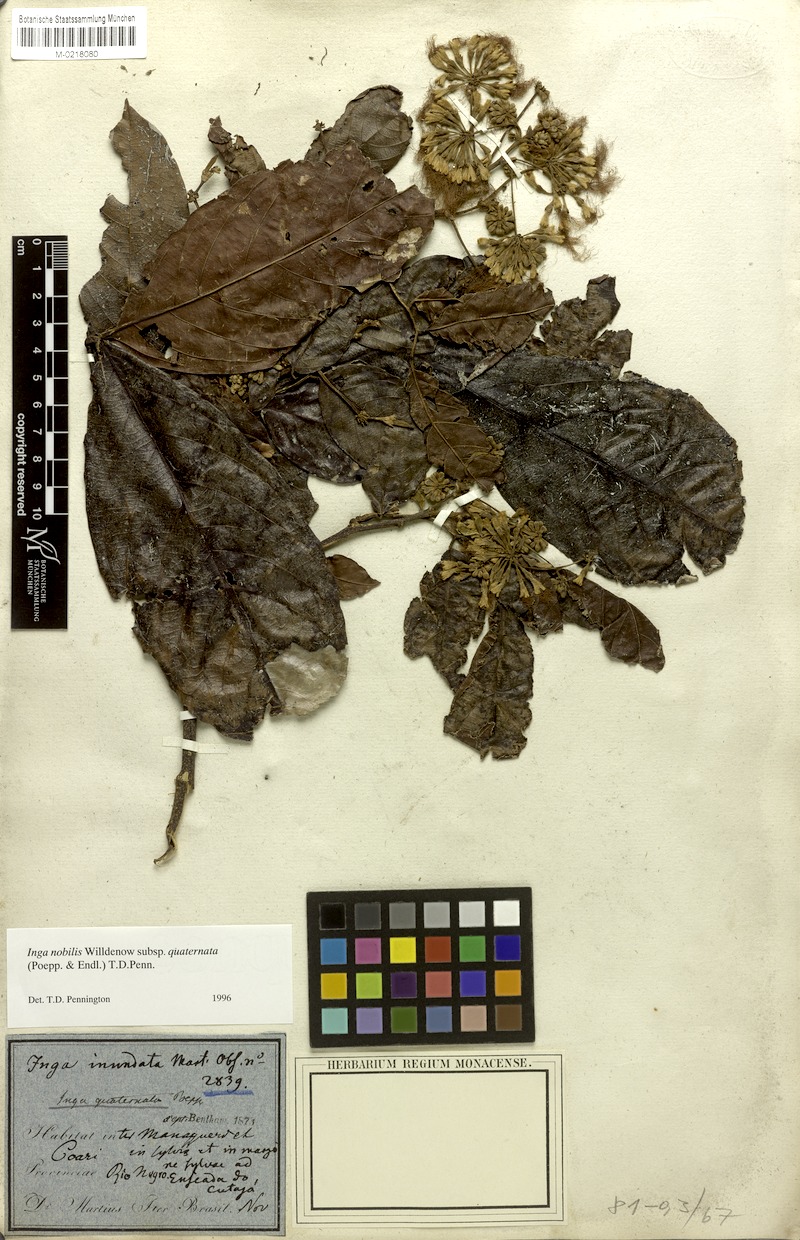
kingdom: Plantae
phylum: Tracheophyta
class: Magnoliopsida
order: Fabales
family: Fabaceae
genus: Inga
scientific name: Inga nobilis
